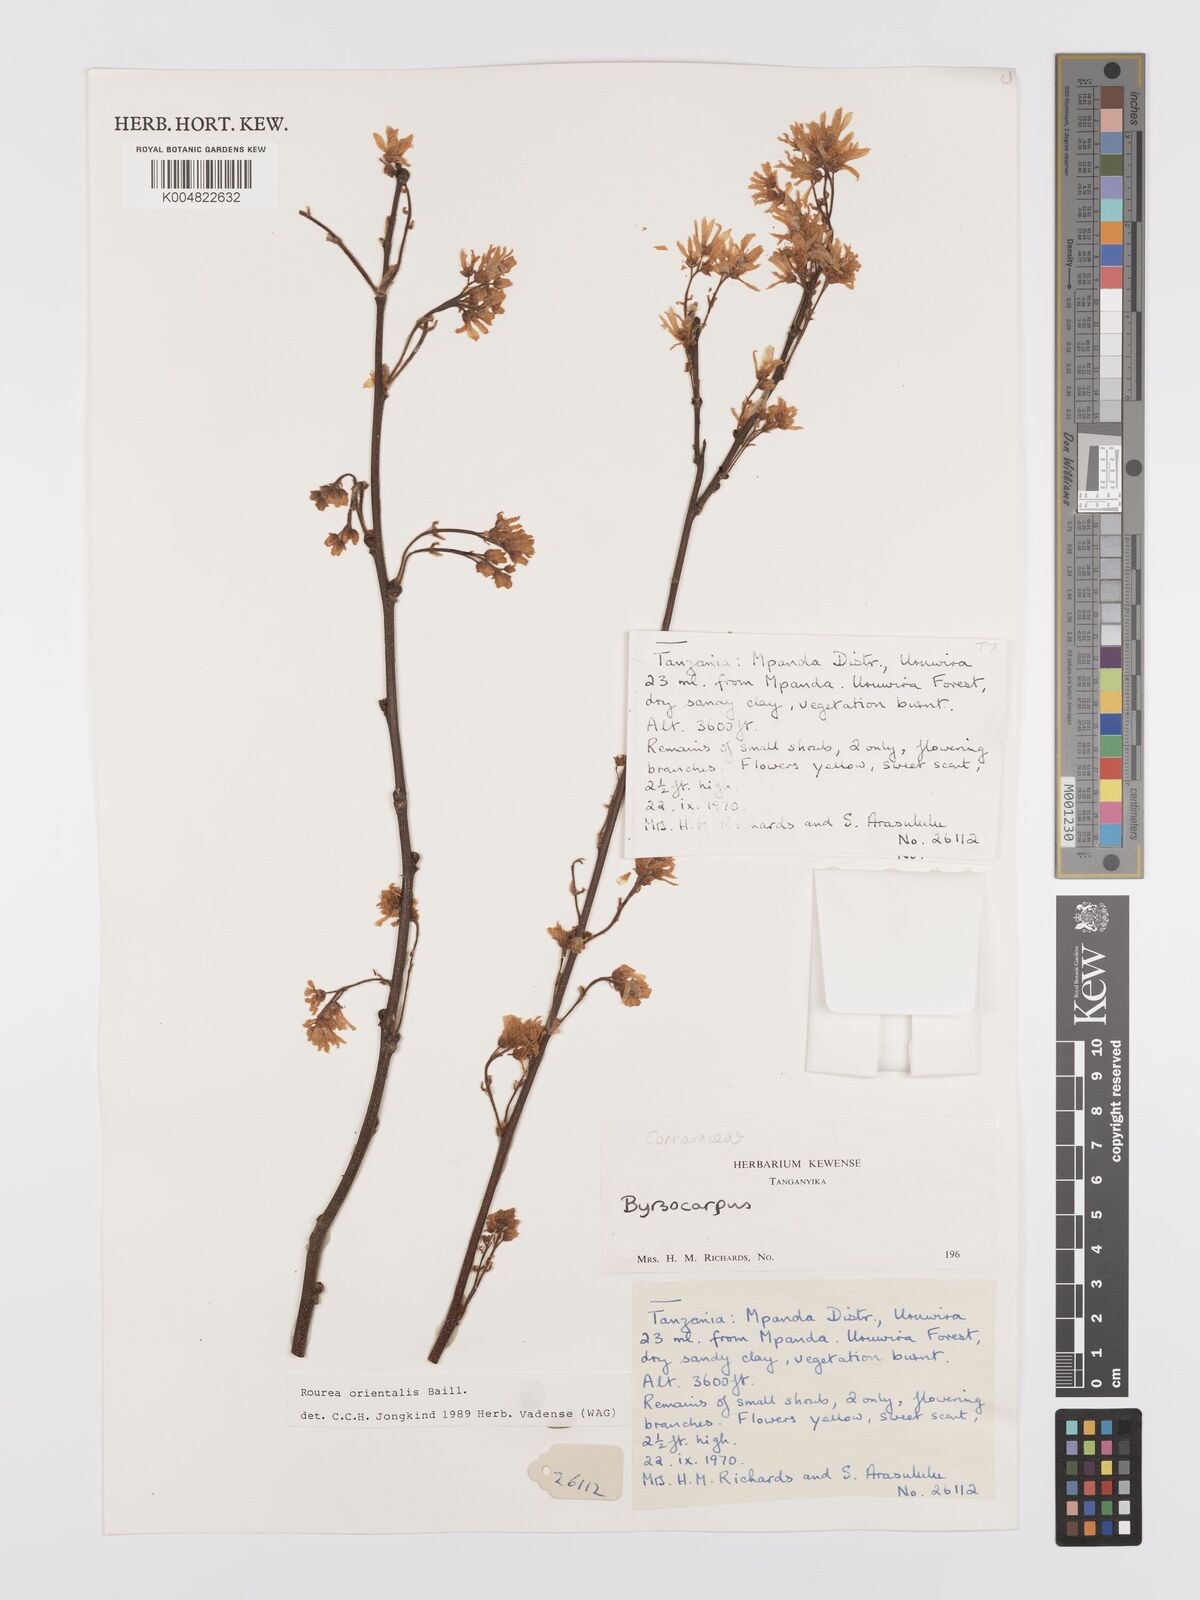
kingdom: Plantae
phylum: Tracheophyta
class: Magnoliopsida
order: Oxalidales
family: Connaraceae
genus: Rourea
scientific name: Rourea orientalis
